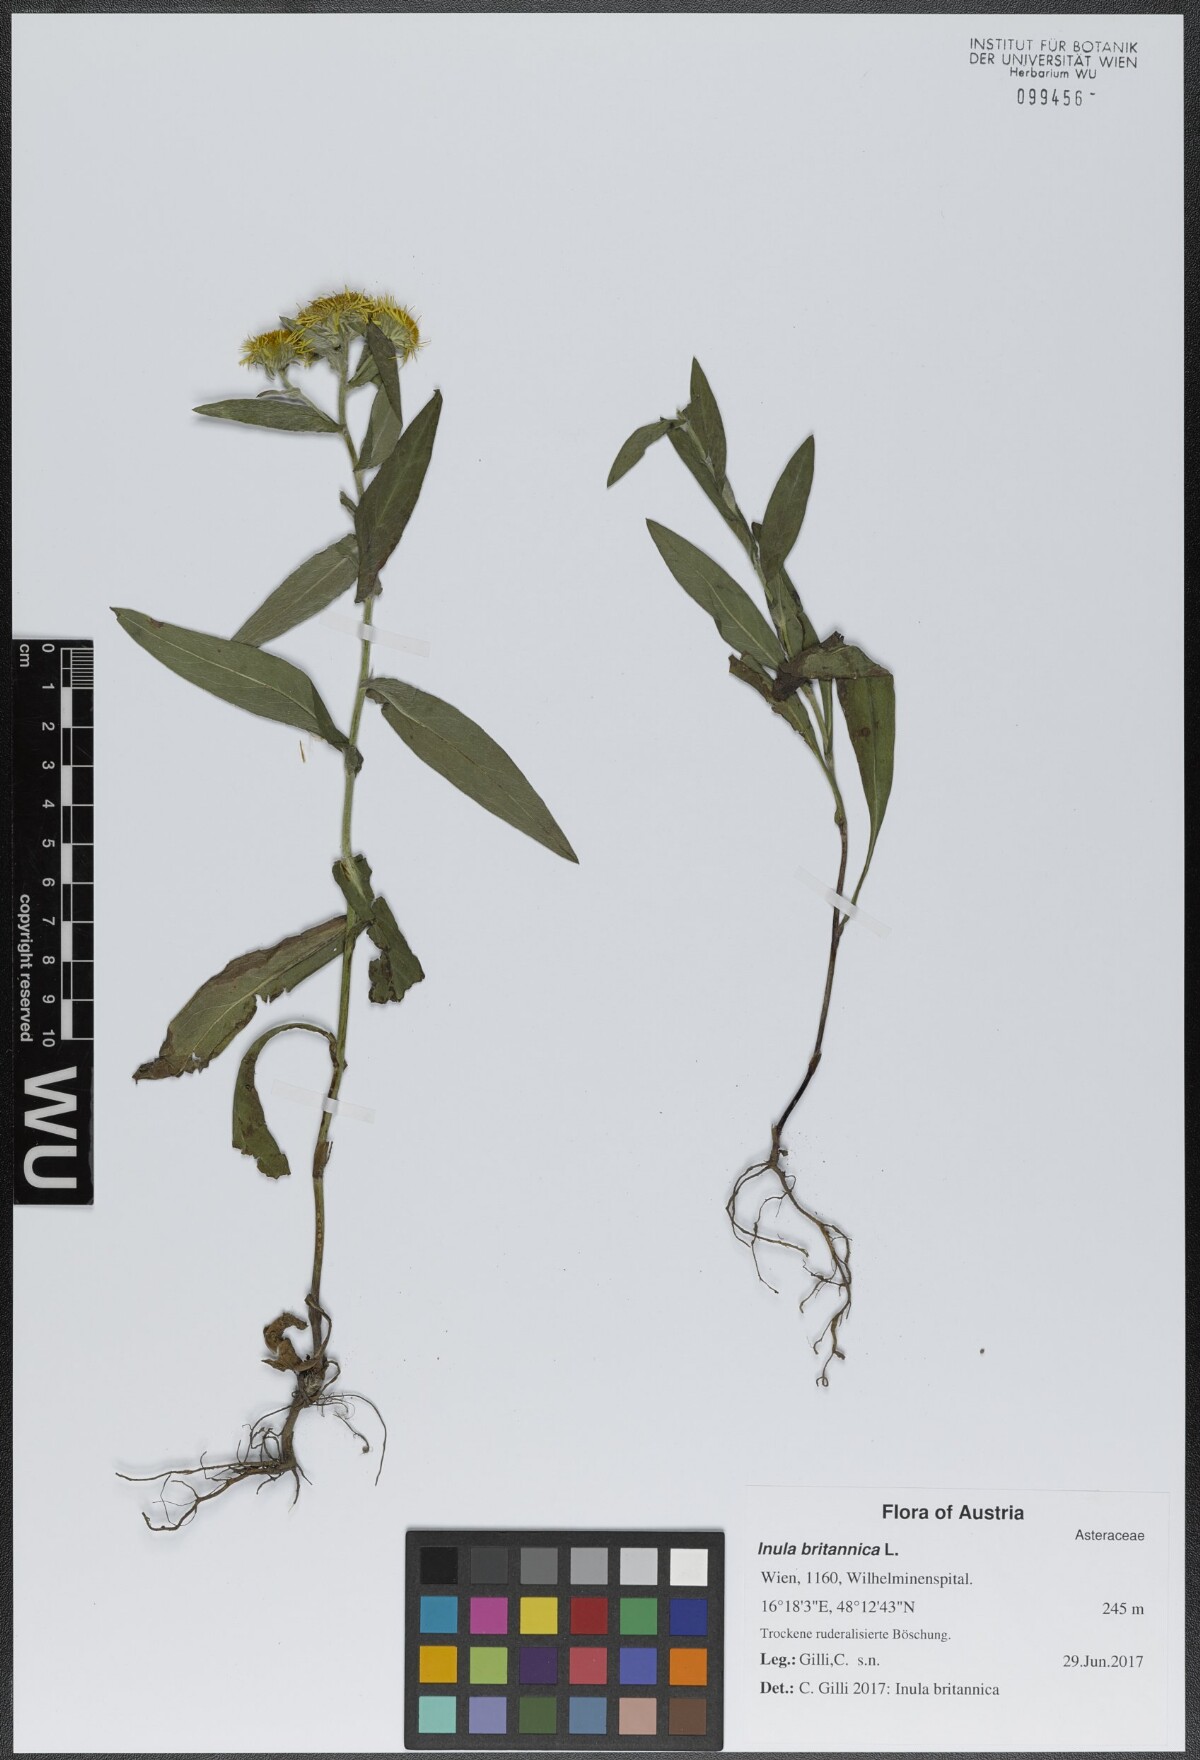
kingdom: Plantae
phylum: Tracheophyta
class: Magnoliopsida
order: Asterales
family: Asteraceae
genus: Pentanema
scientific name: Pentanema britannicum
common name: British elecampane
